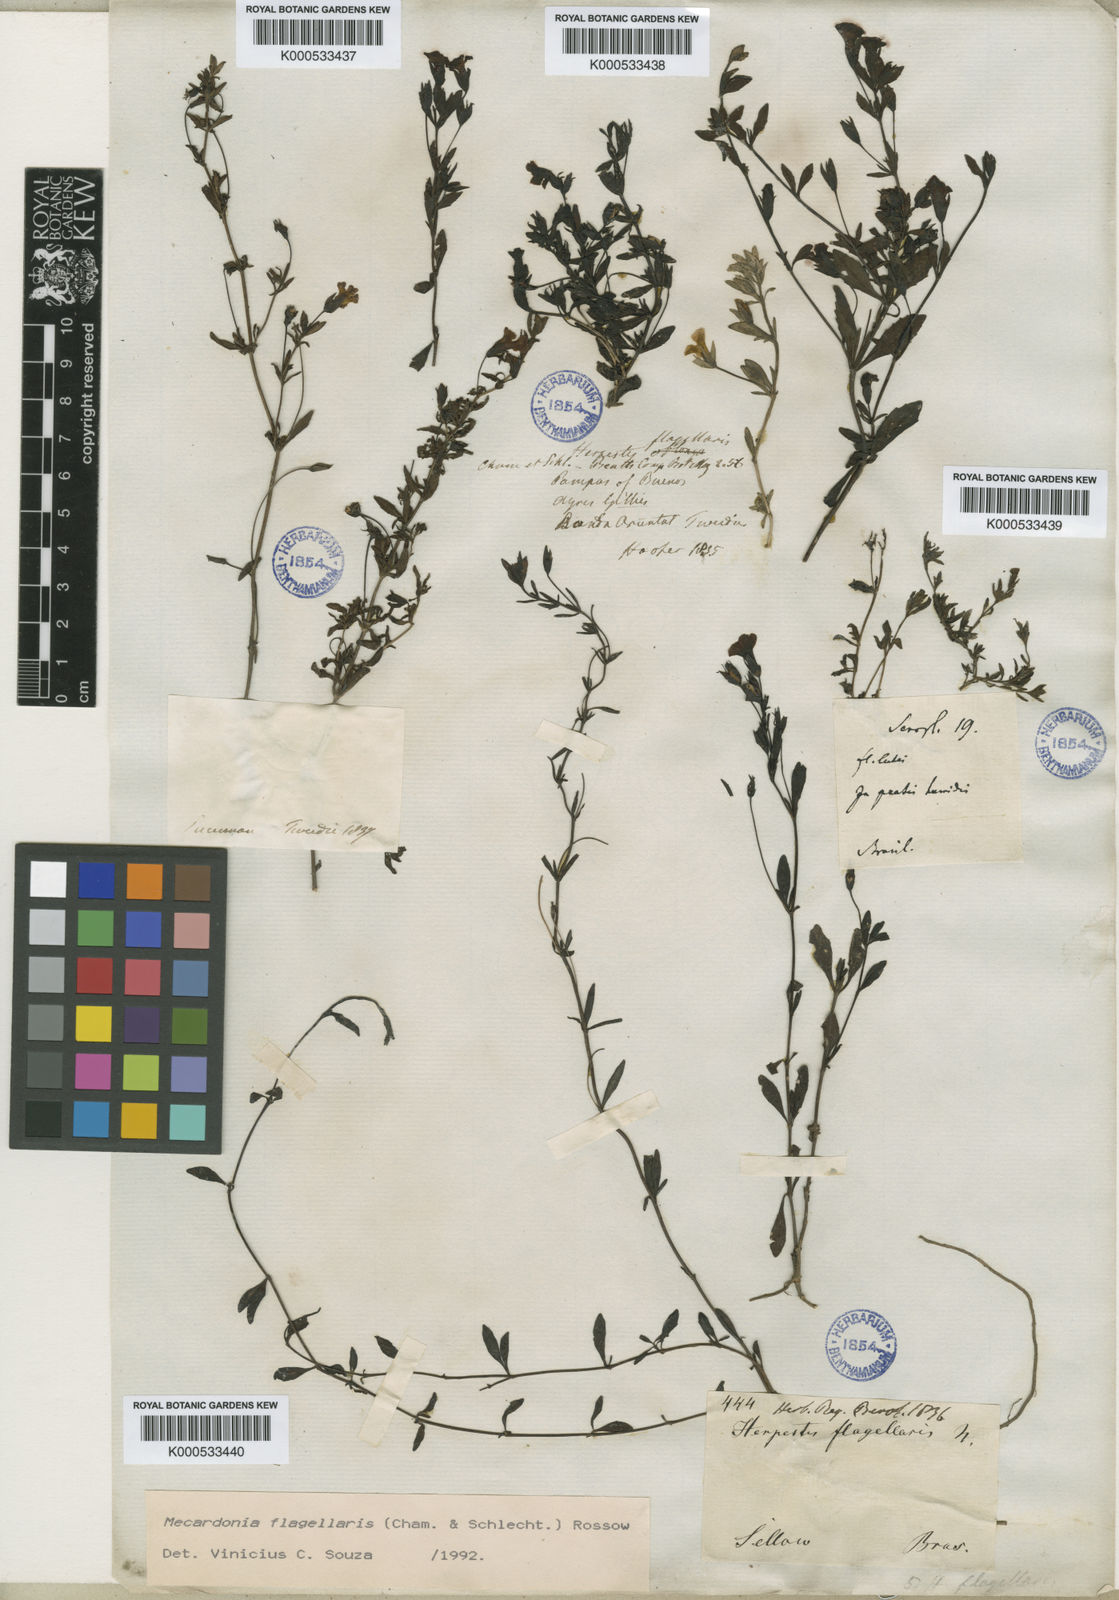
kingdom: Plantae
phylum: Tracheophyta
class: Magnoliopsida
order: Lamiales
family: Plantaginaceae
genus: Mecardonia
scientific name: Mecardonia flagellaris
